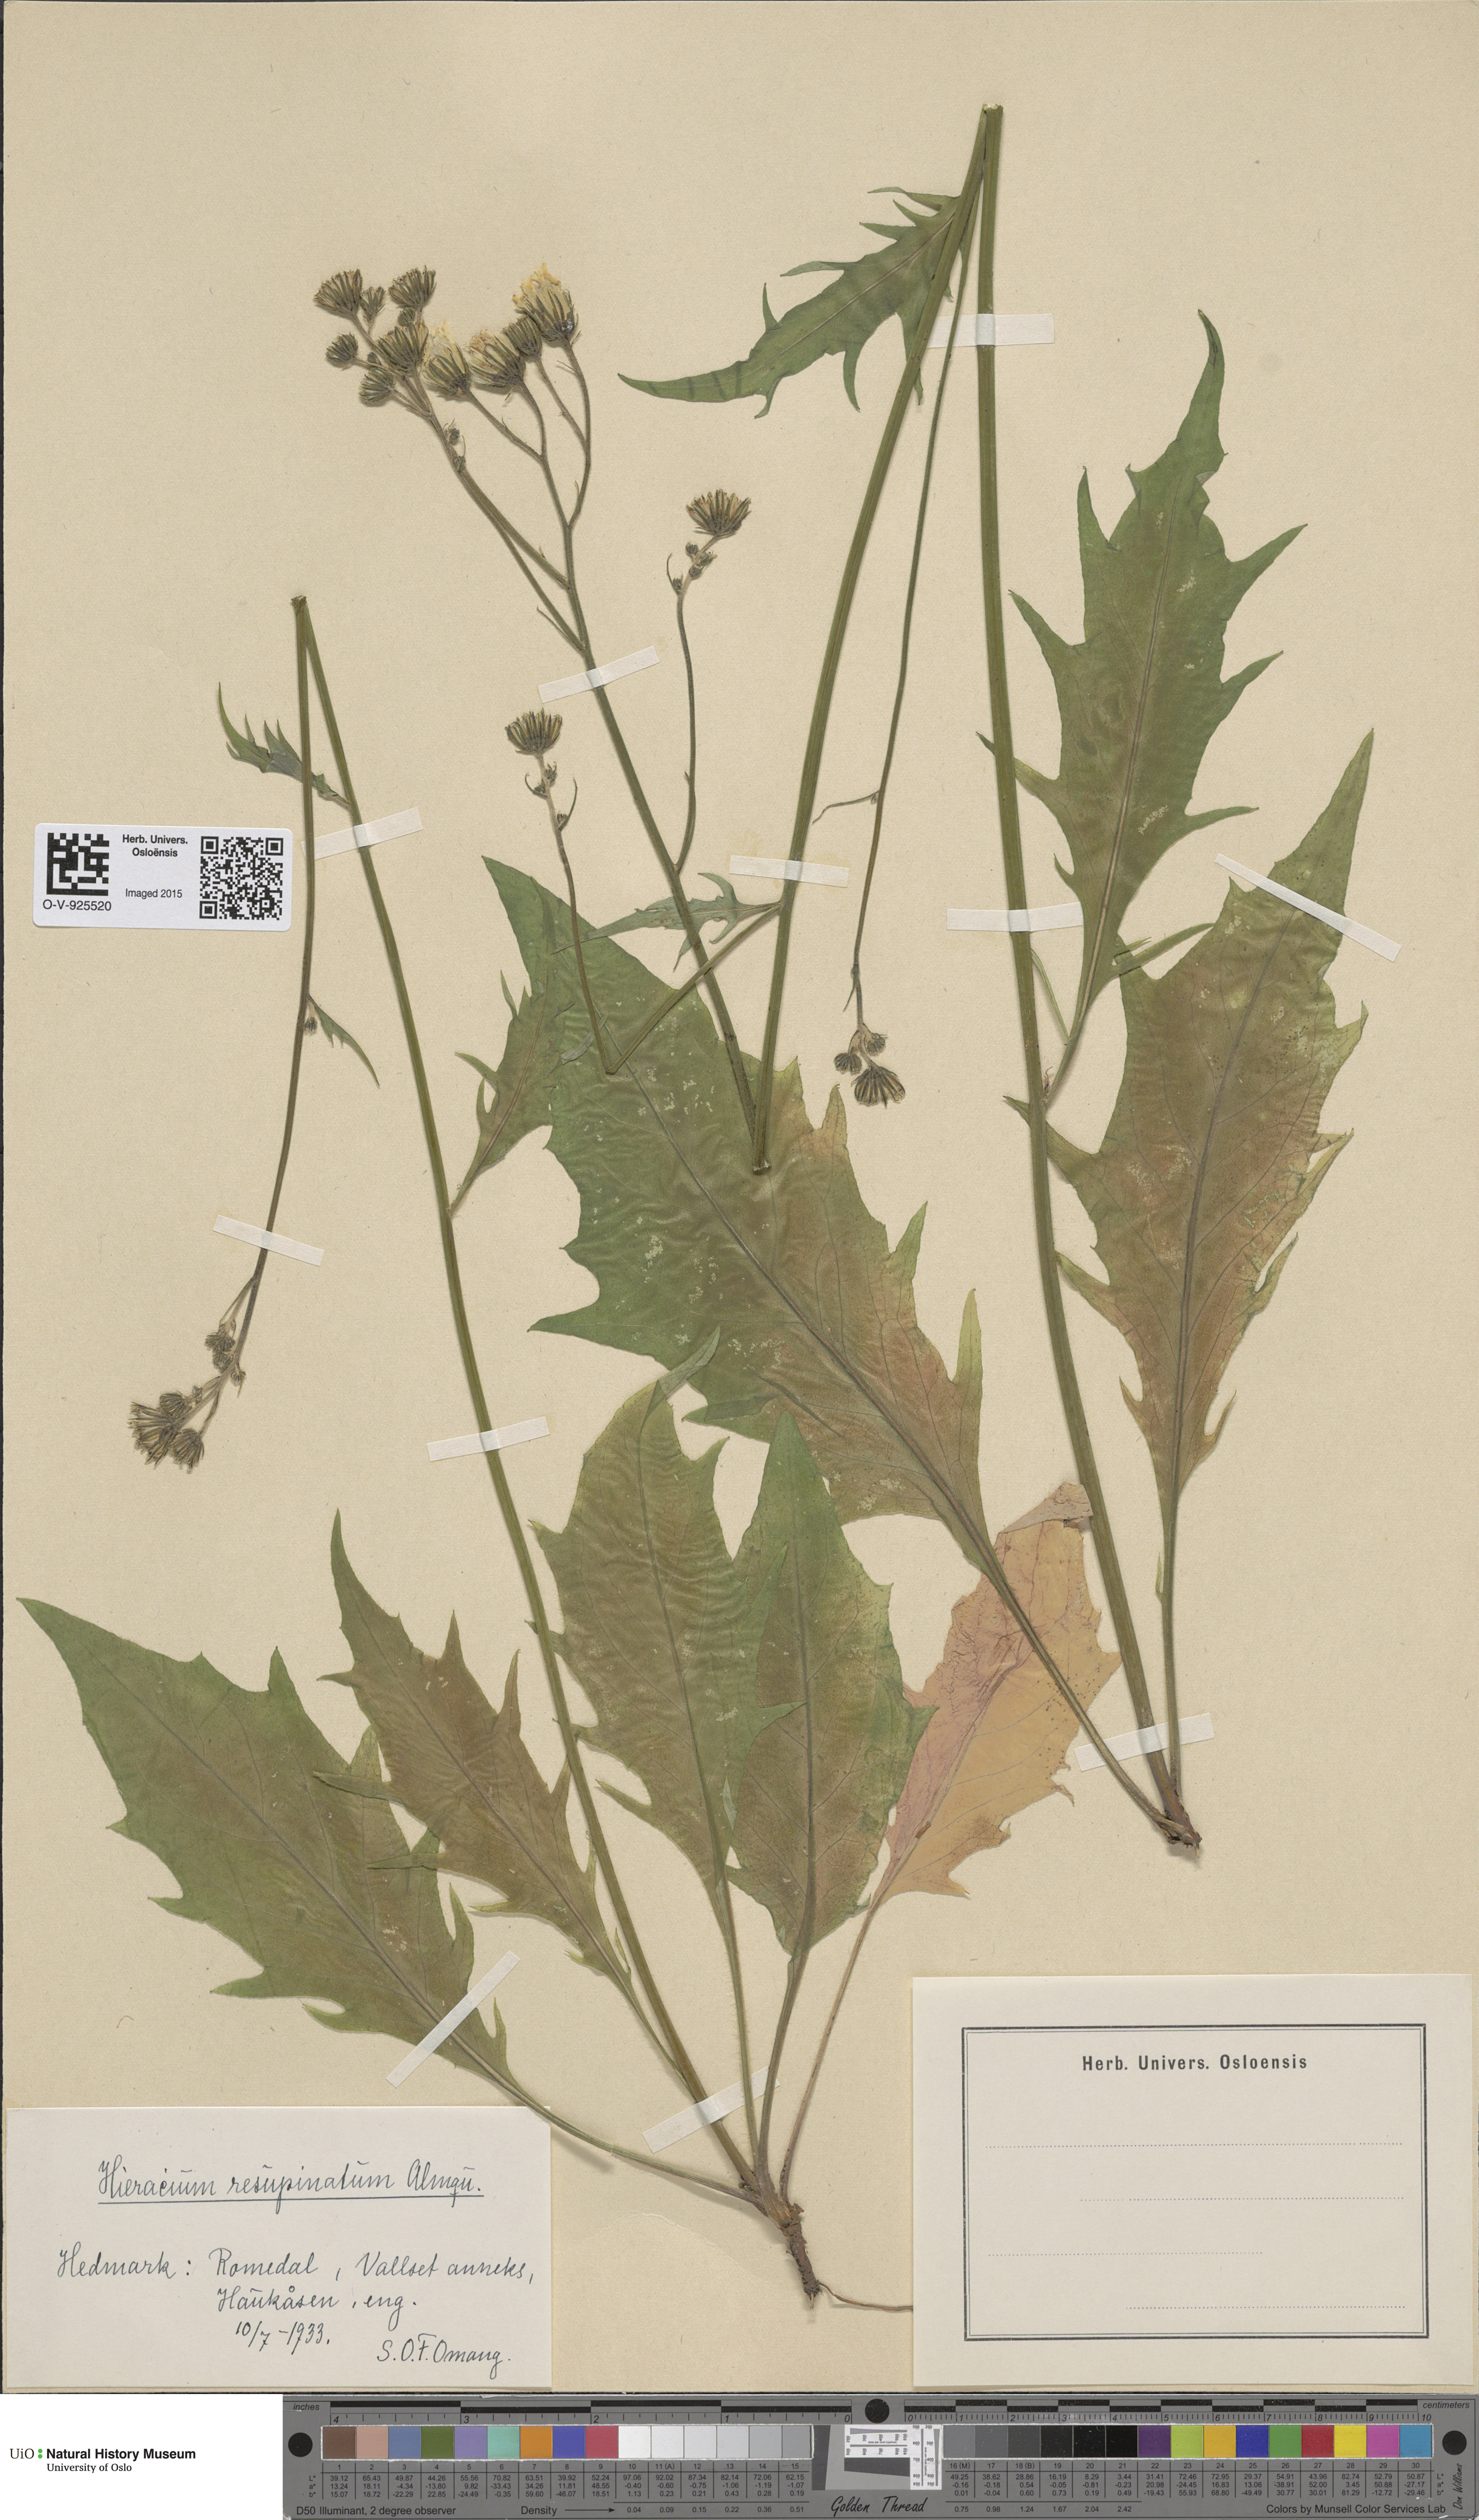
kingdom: Plantae
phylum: Tracheophyta
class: Magnoliopsida
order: Asterales
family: Asteraceae
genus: Hieracium
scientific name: Hieracium resupinatum
